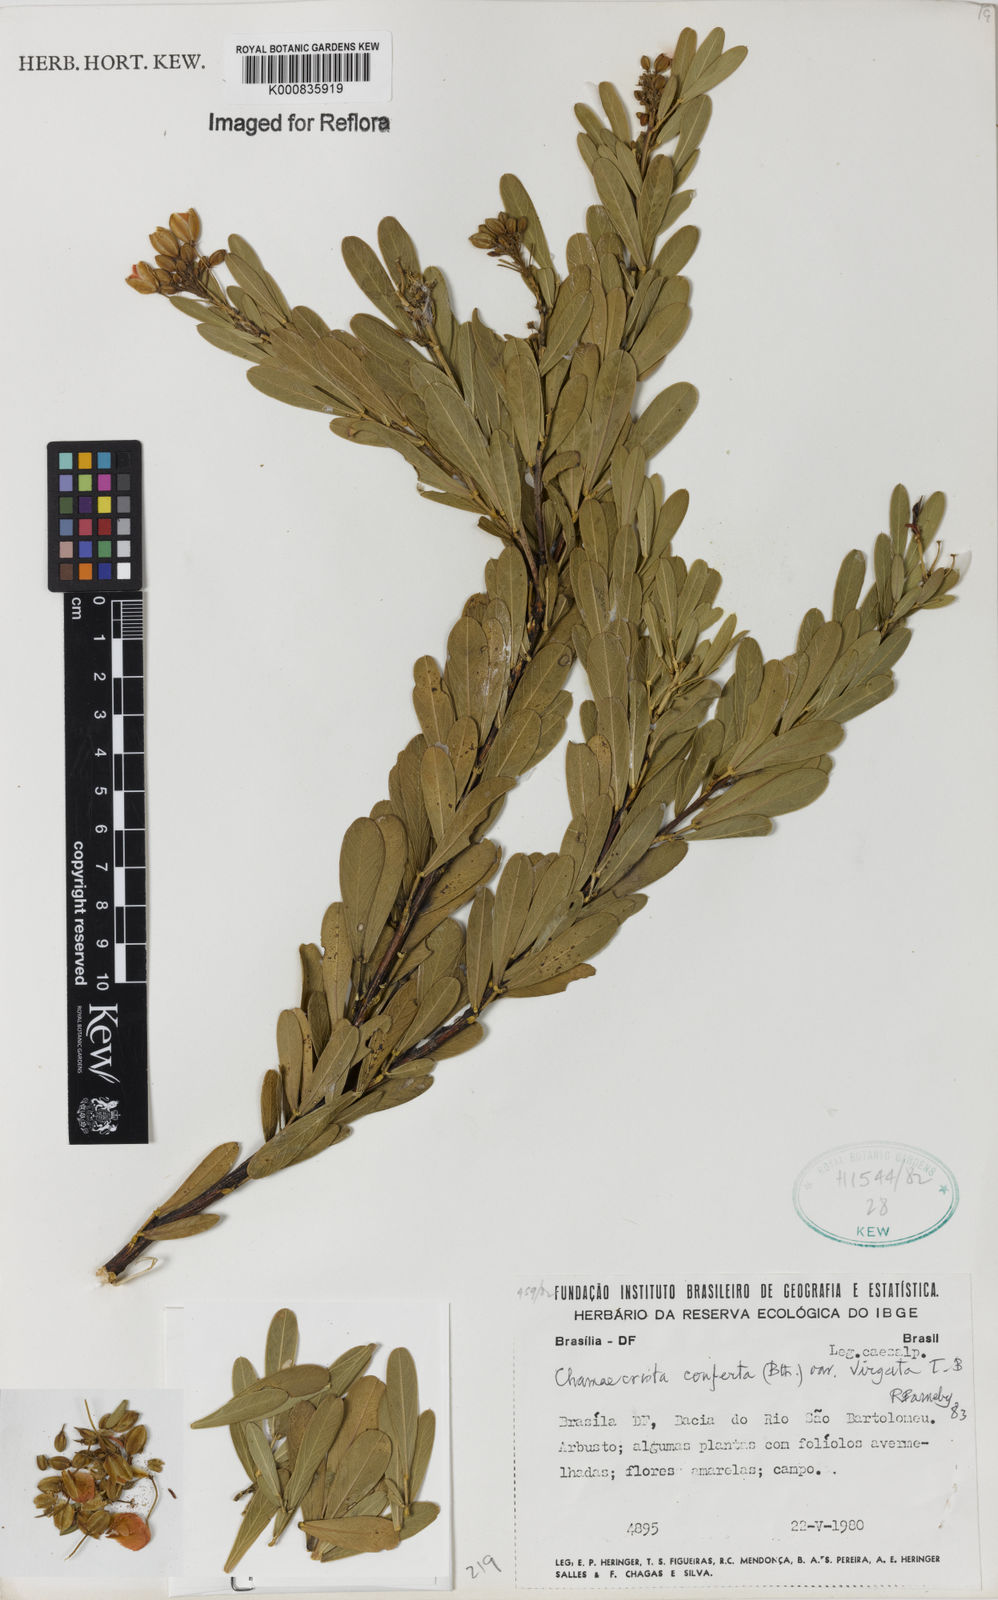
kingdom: Plantae
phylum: Tracheophyta
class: Magnoliopsida
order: Fabales
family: Fabaceae
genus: Chamaecrista
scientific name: Chamaecrista conferta
